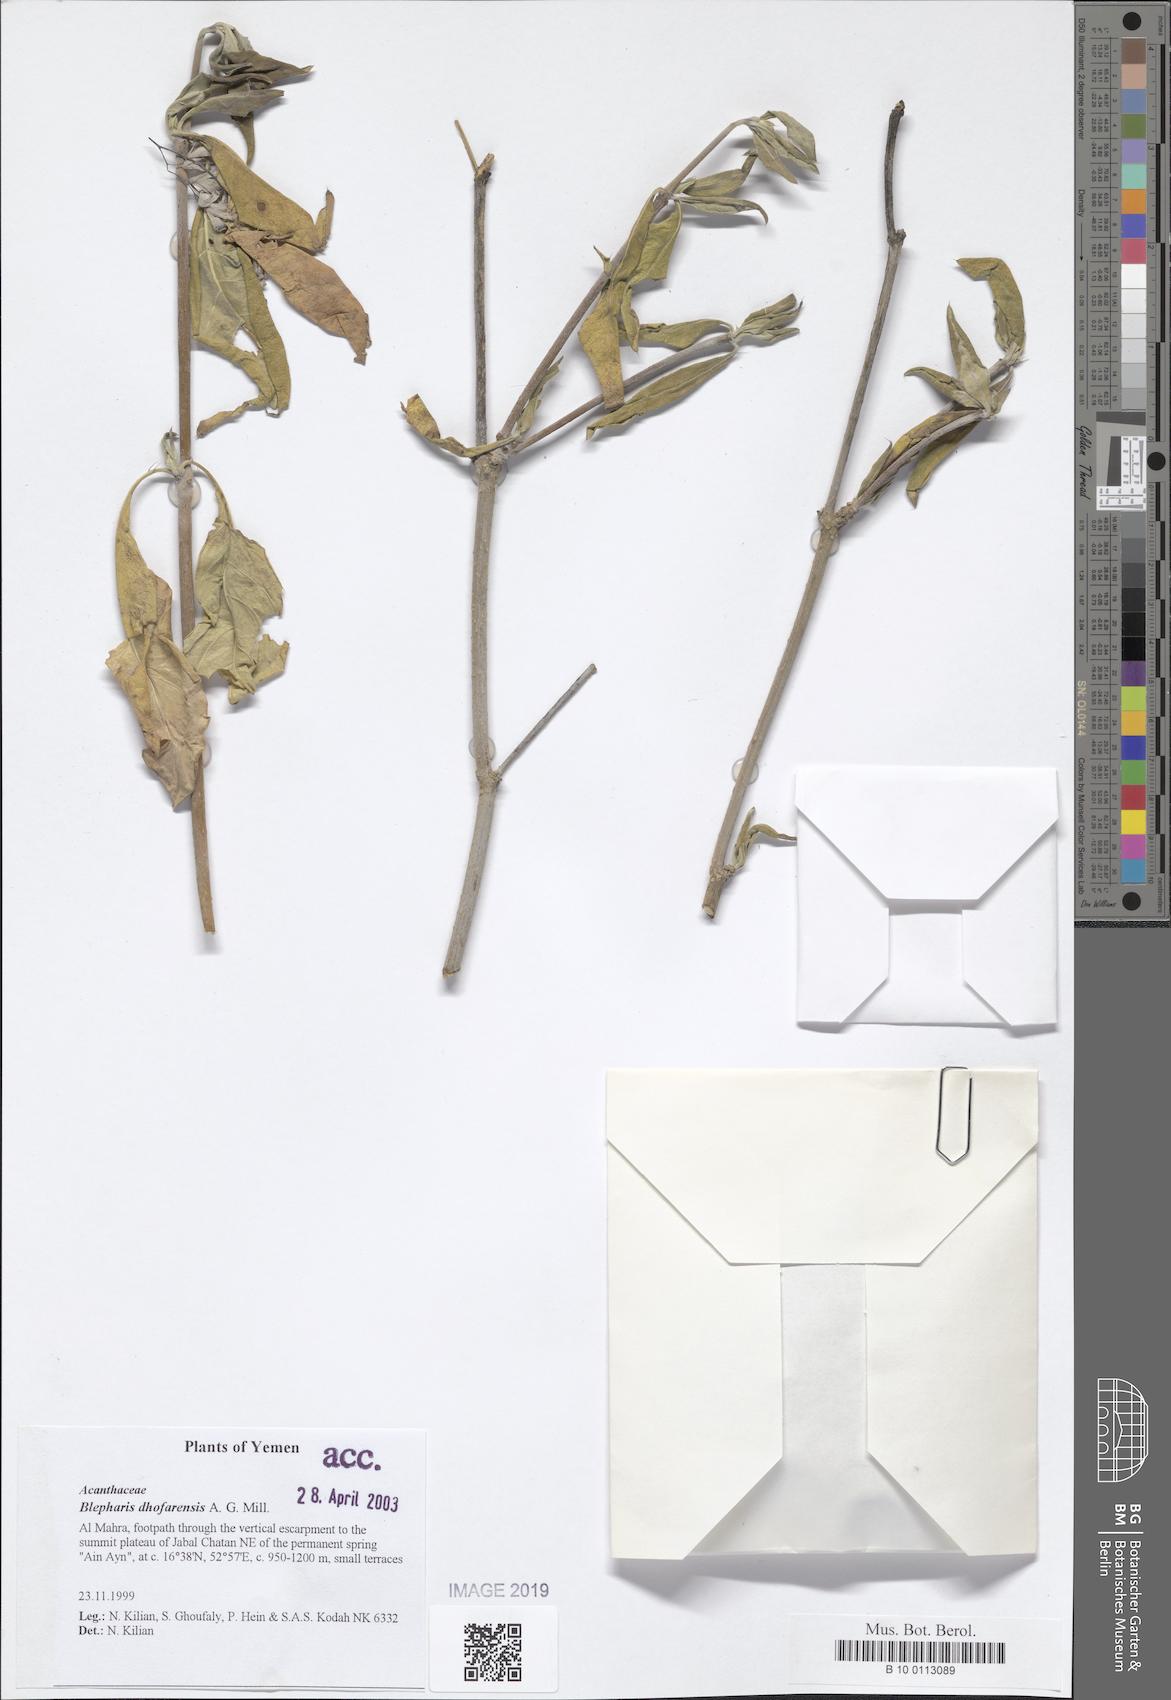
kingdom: Plantae
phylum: Tracheophyta
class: Magnoliopsida
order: Lamiales
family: Acanthaceae
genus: Blepharis
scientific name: Blepharis dhofarensis
